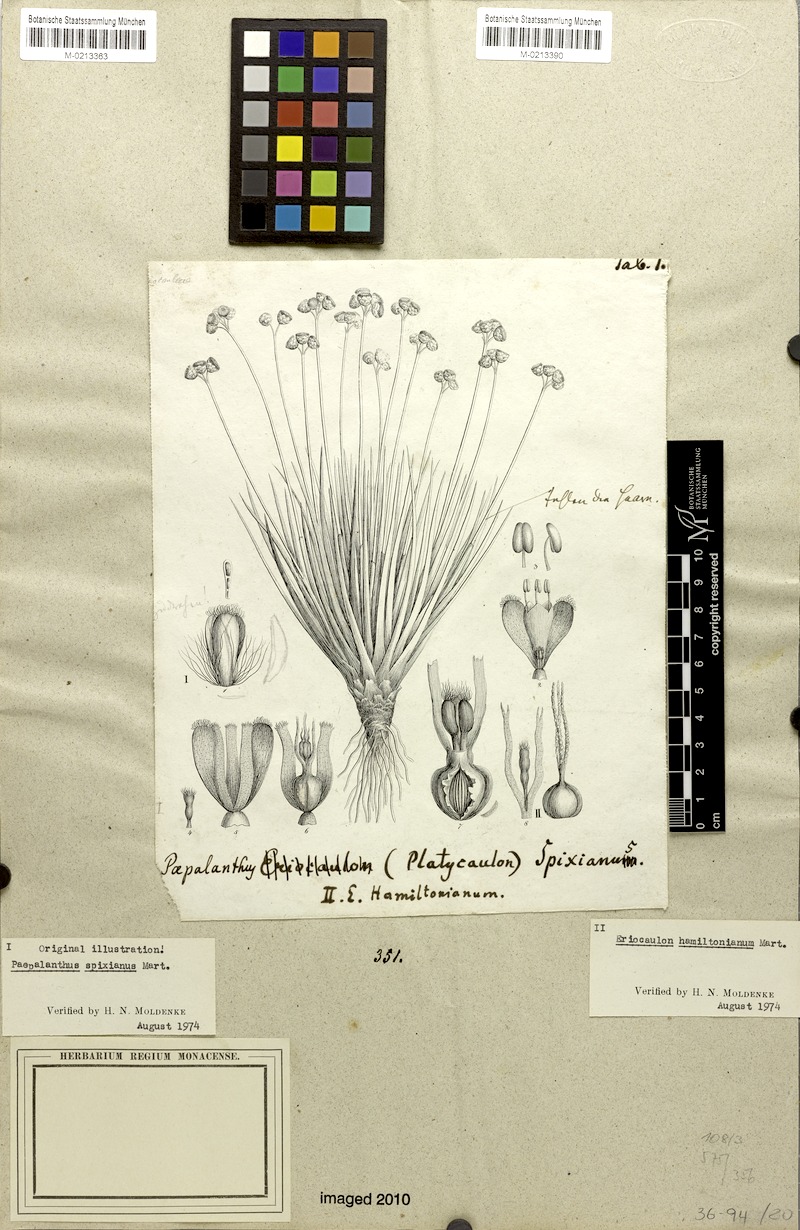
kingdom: Plantae
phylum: Tracheophyta
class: Liliopsida
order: Poales
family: Eriocaulaceae
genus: Eriocaulon
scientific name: Eriocaulon hamiltonianum
